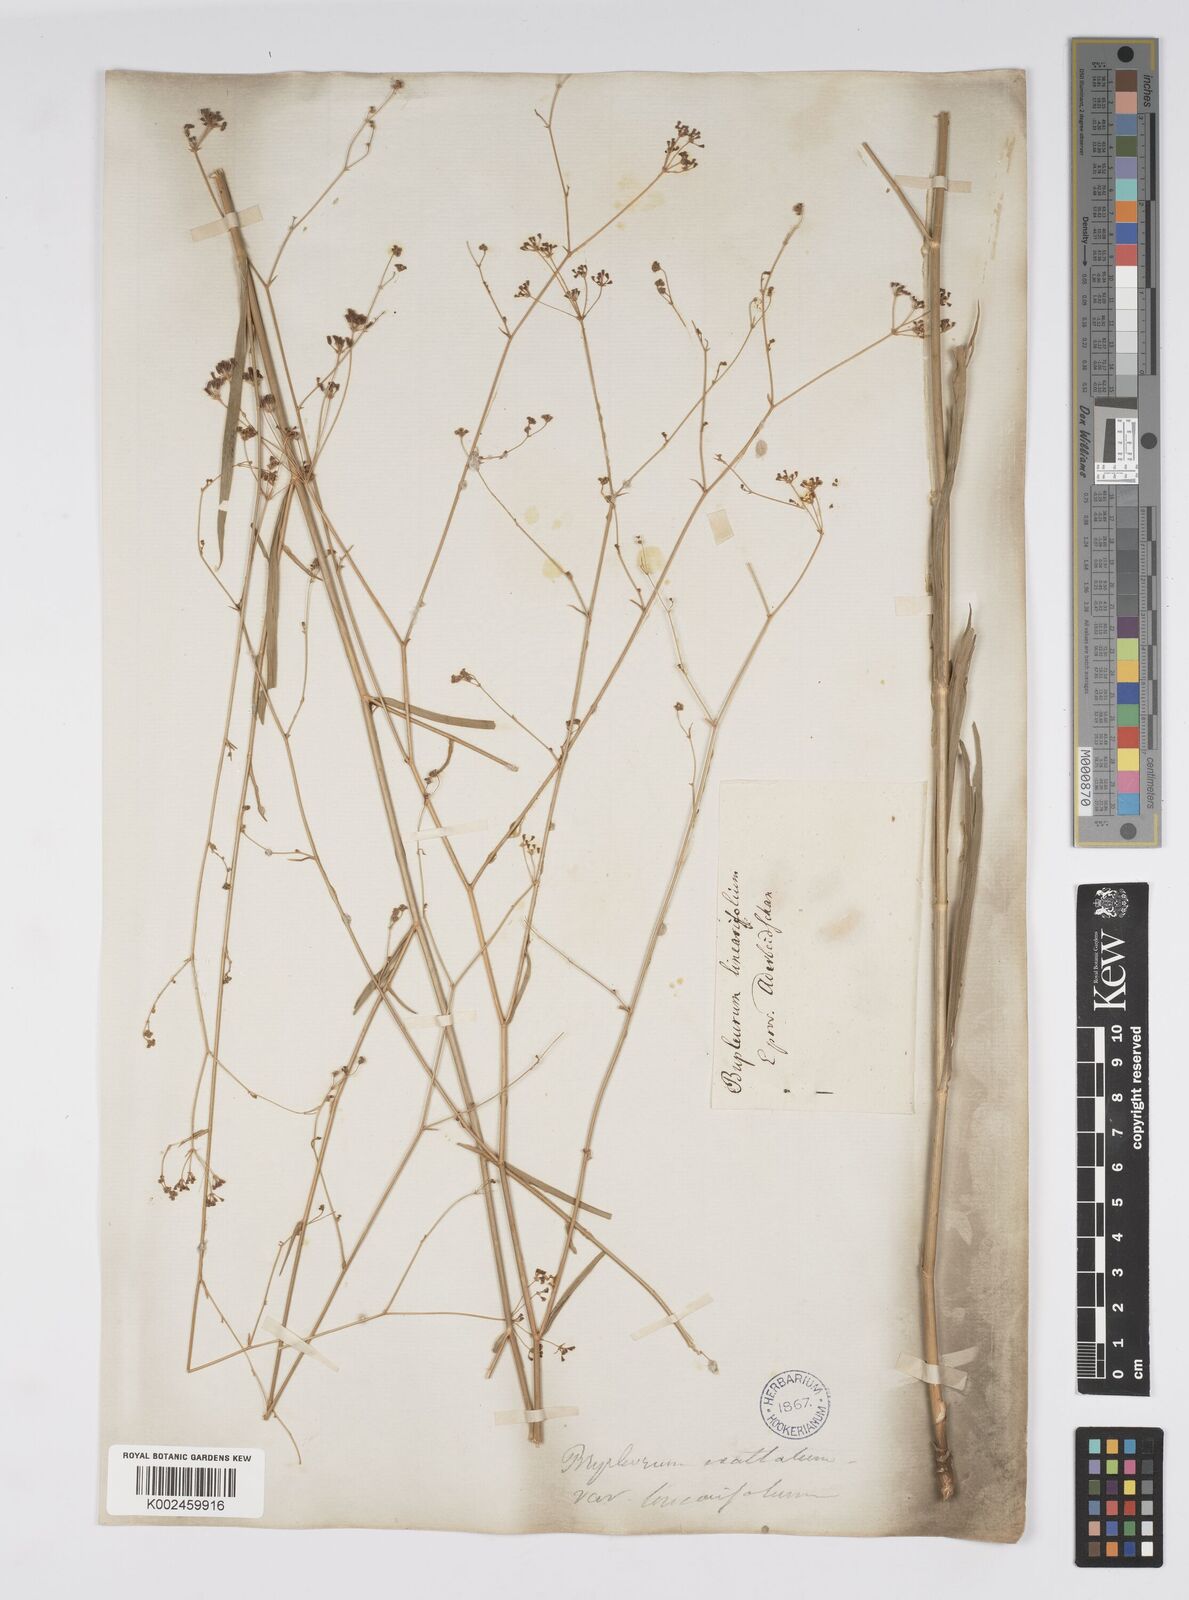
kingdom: Plantae
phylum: Tracheophyta
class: Magnoliopsida
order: Apiales
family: Apiaceae
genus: Bupleurum
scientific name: Bupleurum falcatum
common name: Sickle-leaved hare's-ear
